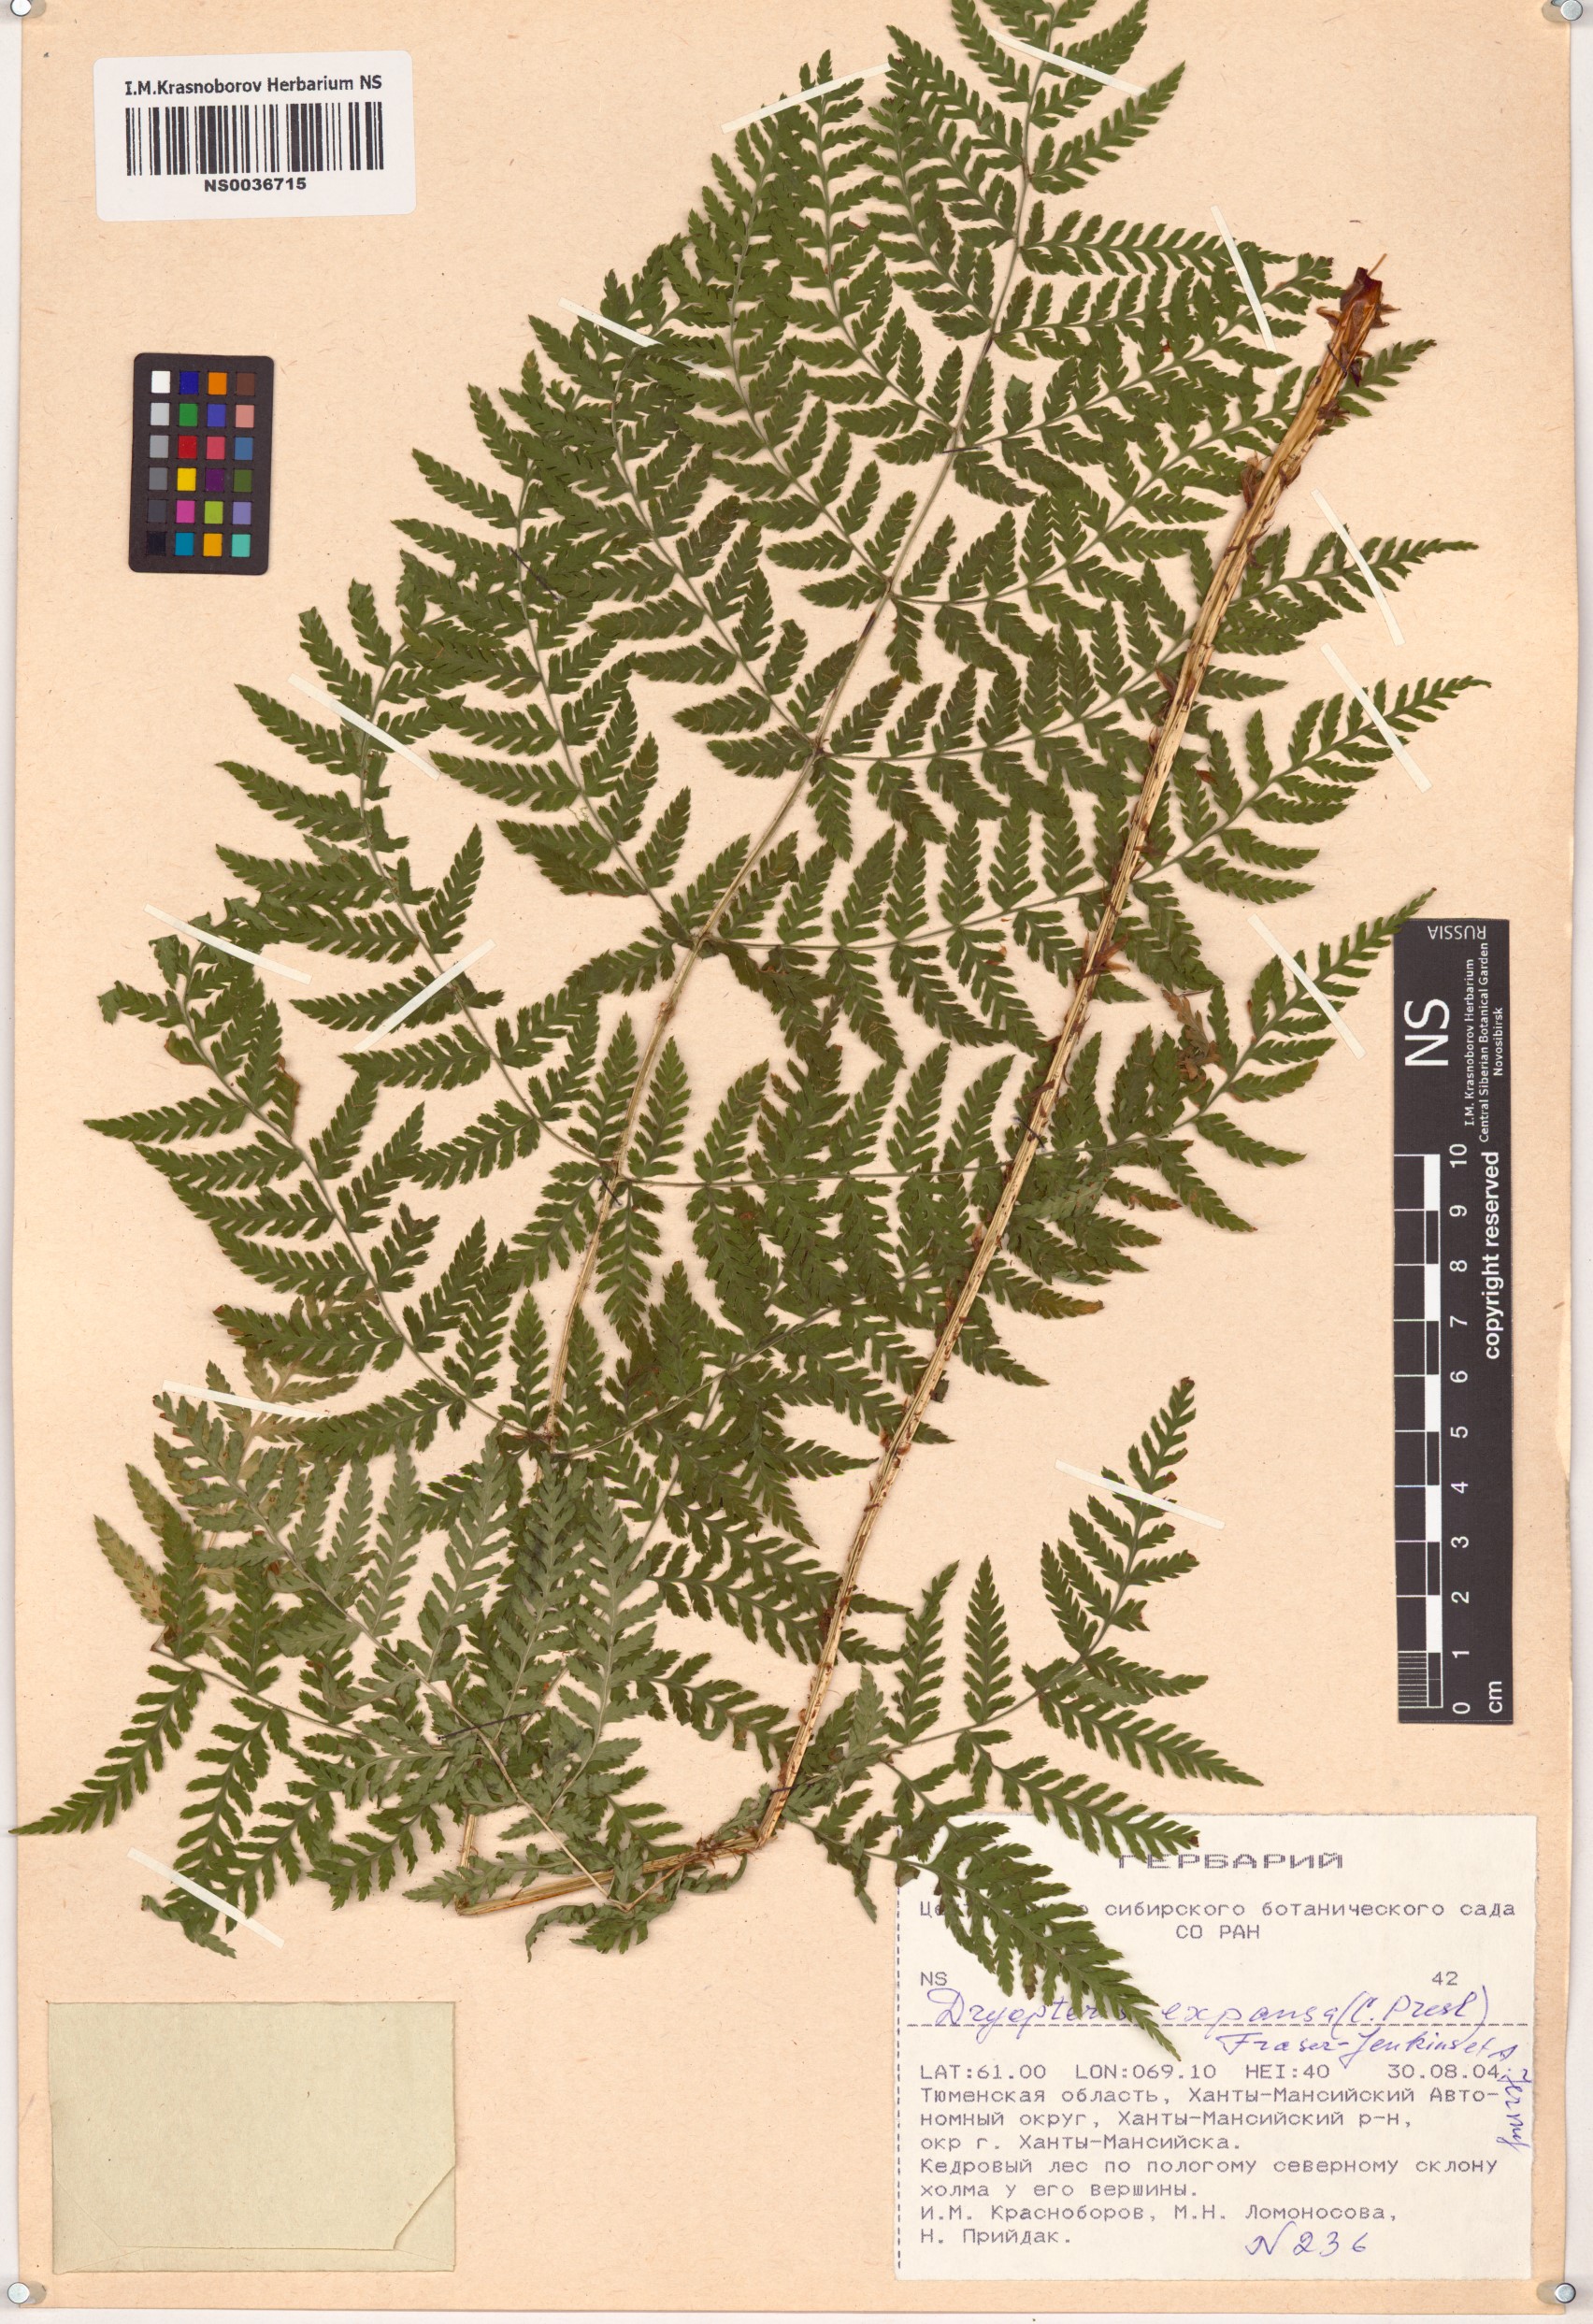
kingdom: Plantae
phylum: Tracheophyta
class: Polypodiopsida
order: Polypodiales
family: Dryopteridaceae
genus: Dryopteris
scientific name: Dryopteris expansa
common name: Northern buckler fern
